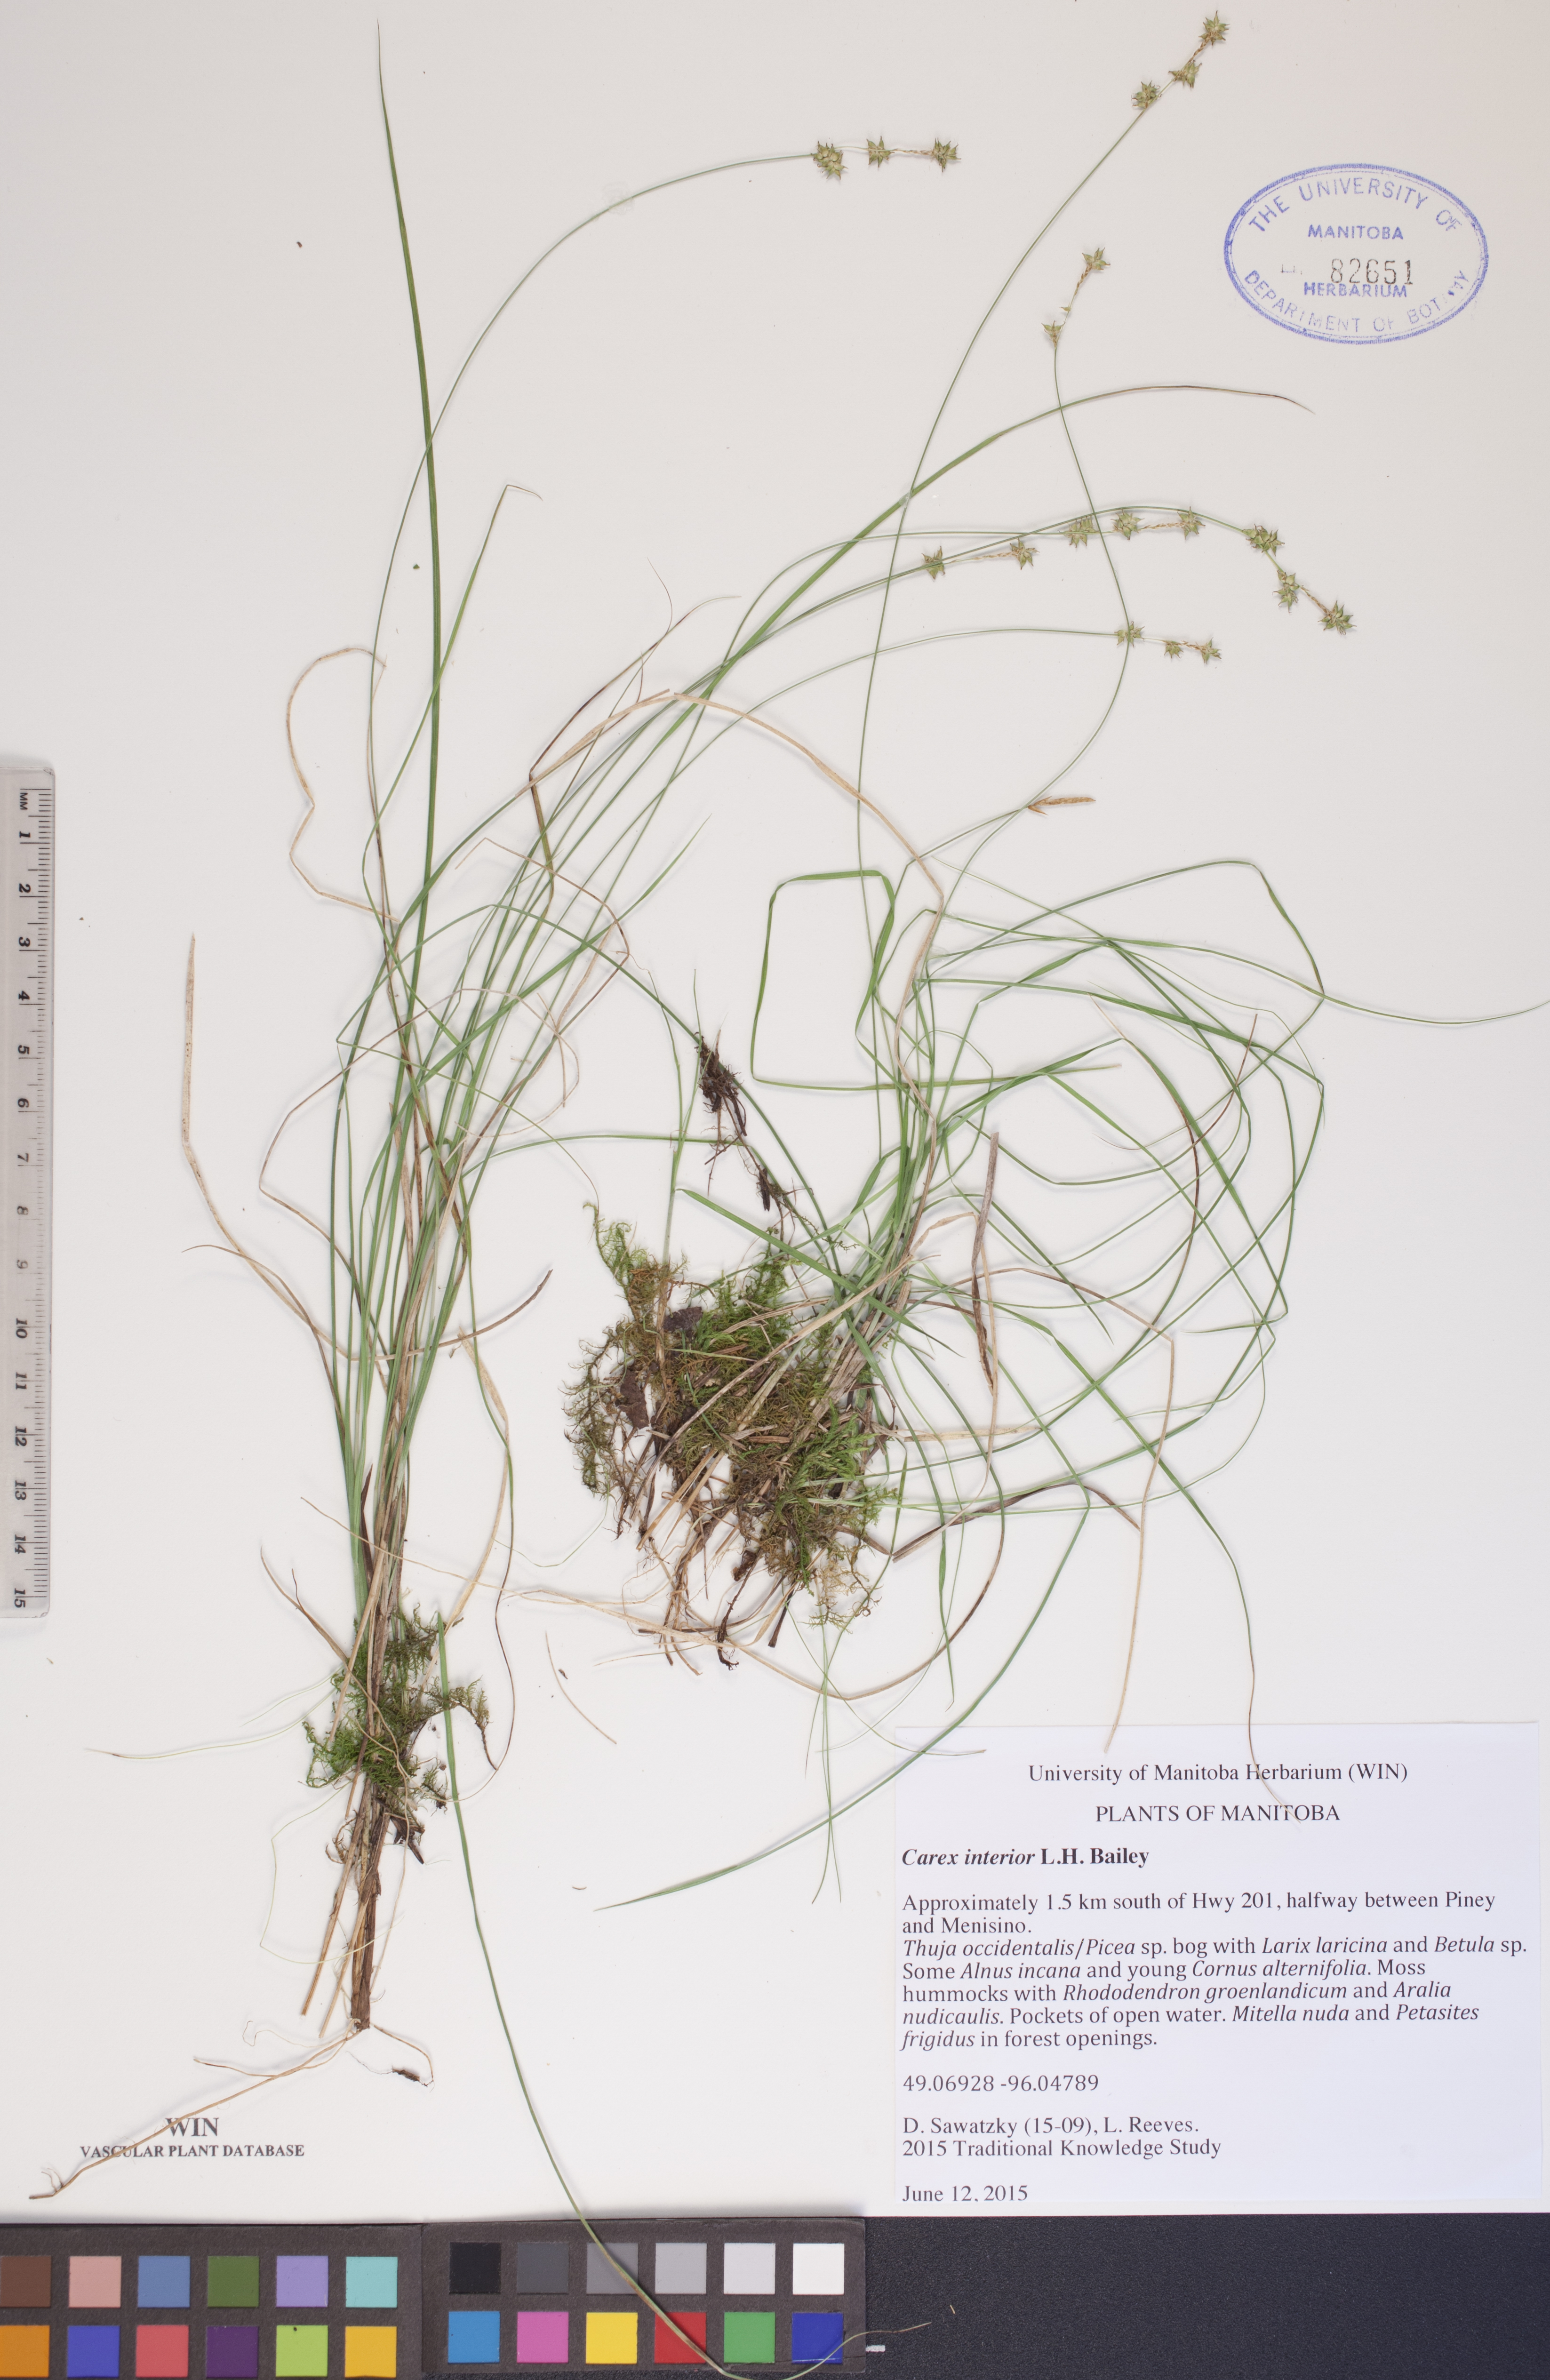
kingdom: Plantae
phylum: Tracheophyta
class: Liliopsida
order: Poales
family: Cyperaceae
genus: Carex
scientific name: Carex interior
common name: Inland sedge
